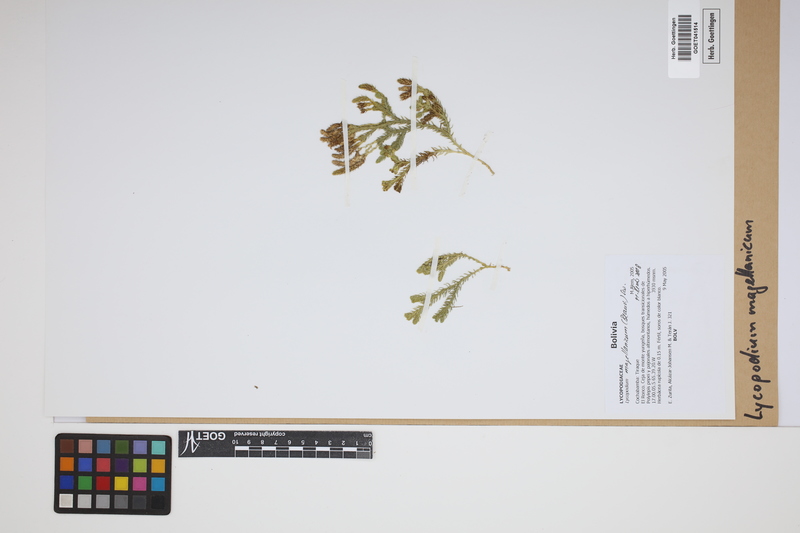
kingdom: Plantae
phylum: Tracheophyta
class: Lycopodiopsida
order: Lycopodiales
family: Lycopodiaceae
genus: Austrolycopodium
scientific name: Austrolycopodium magellanicum
